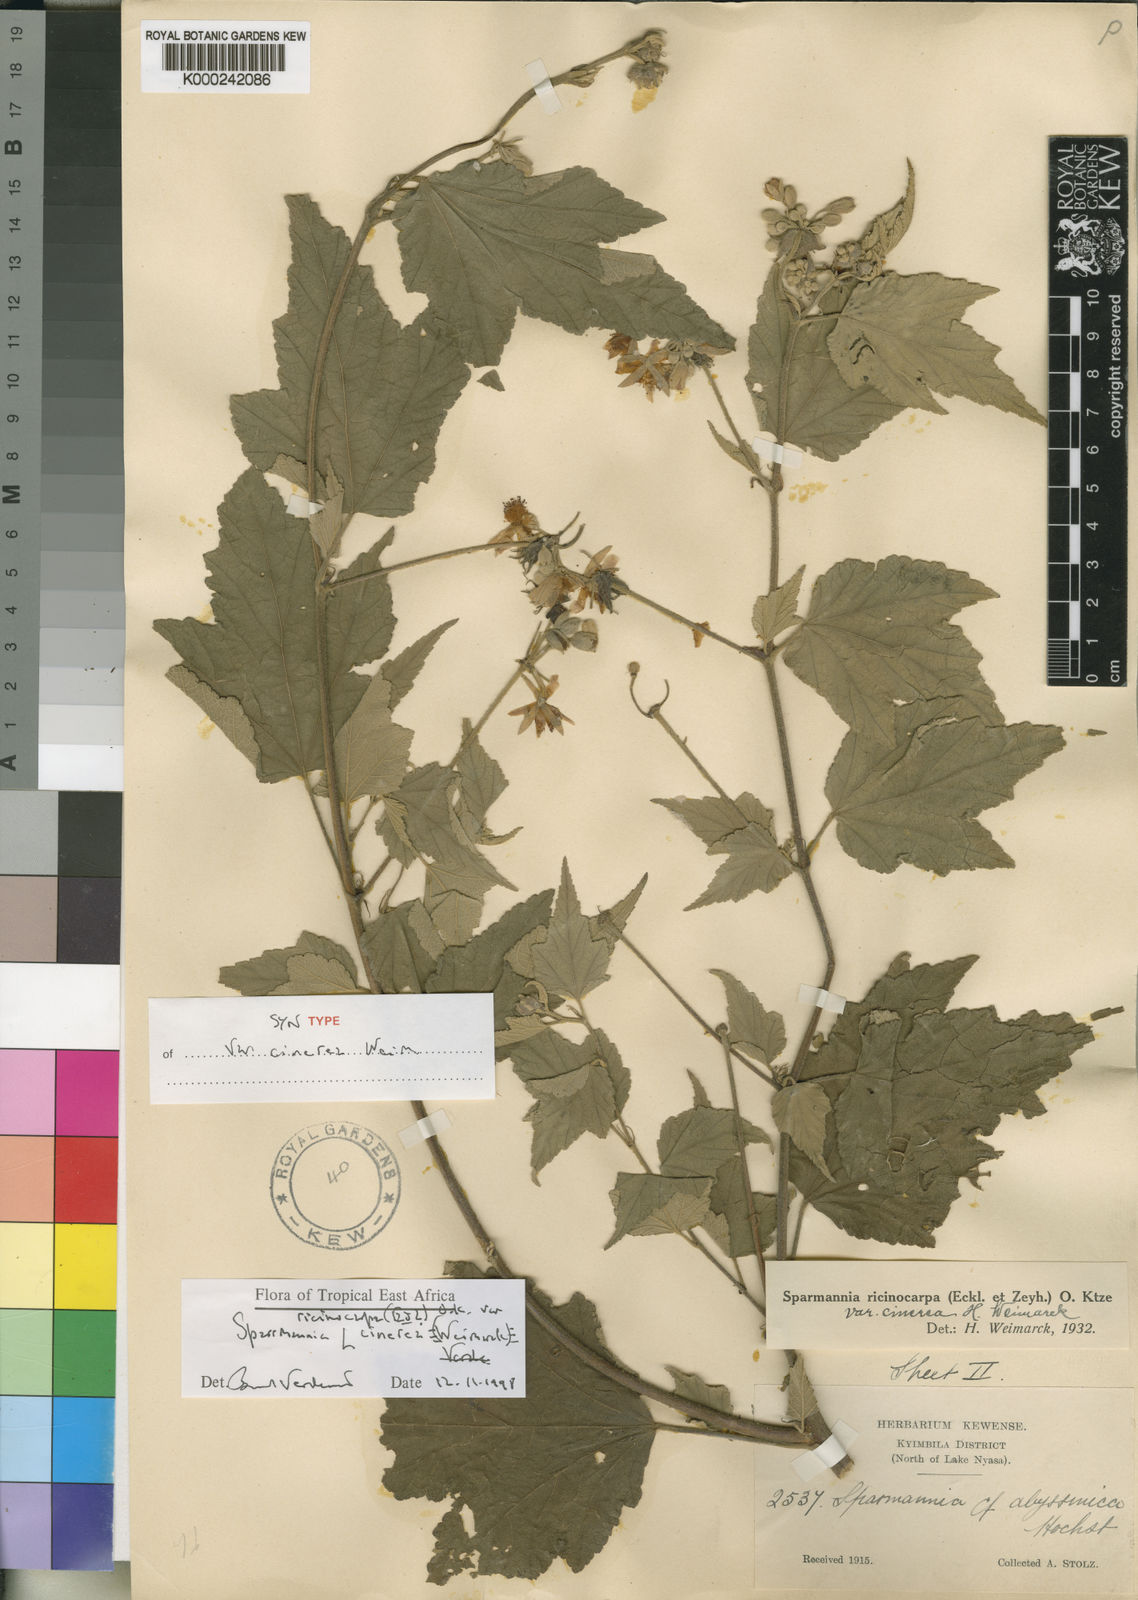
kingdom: Plantae
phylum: Tracheophyta
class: Magnoliopsida
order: Malvales
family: Malvaceae
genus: Sparrmannia
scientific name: Sparrmannia ricinocarpa
